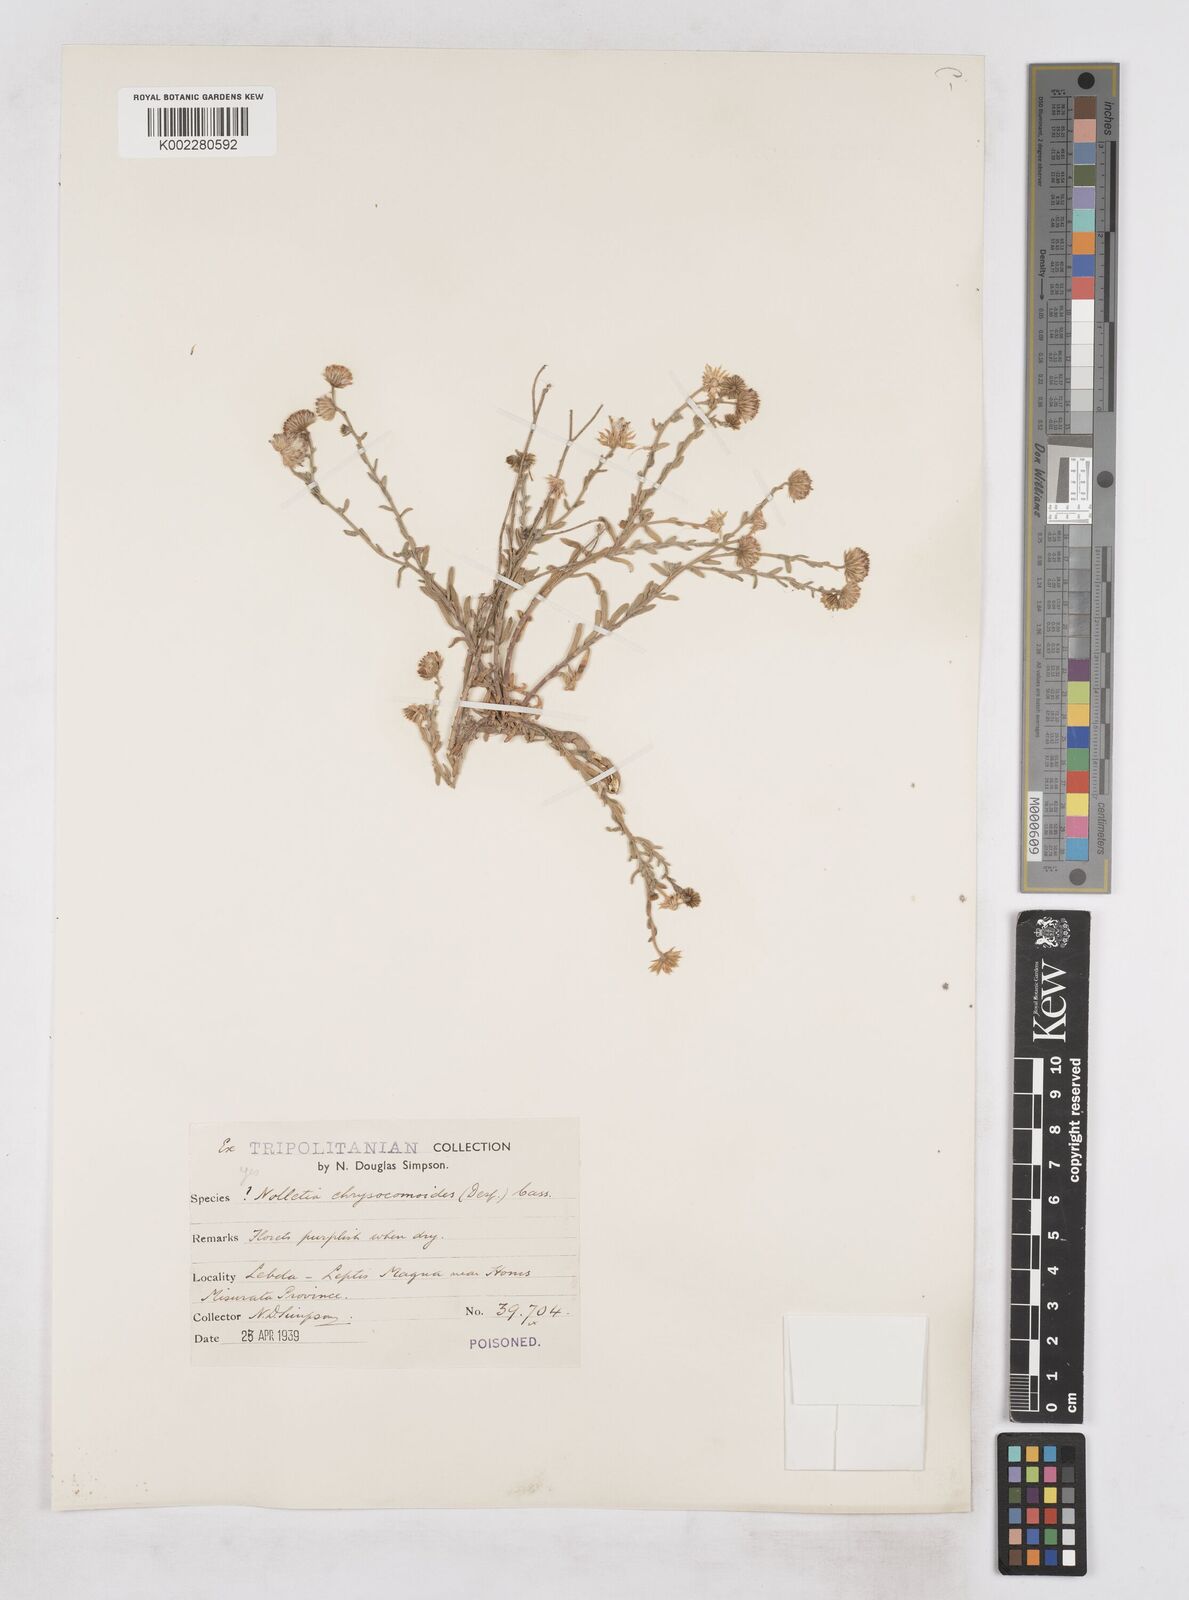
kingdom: Plantae
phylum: Tracheophyta
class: Magnoliopsida
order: Asterales
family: Asteraceae
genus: Nolletia
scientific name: Nolletia chrysocomoides
